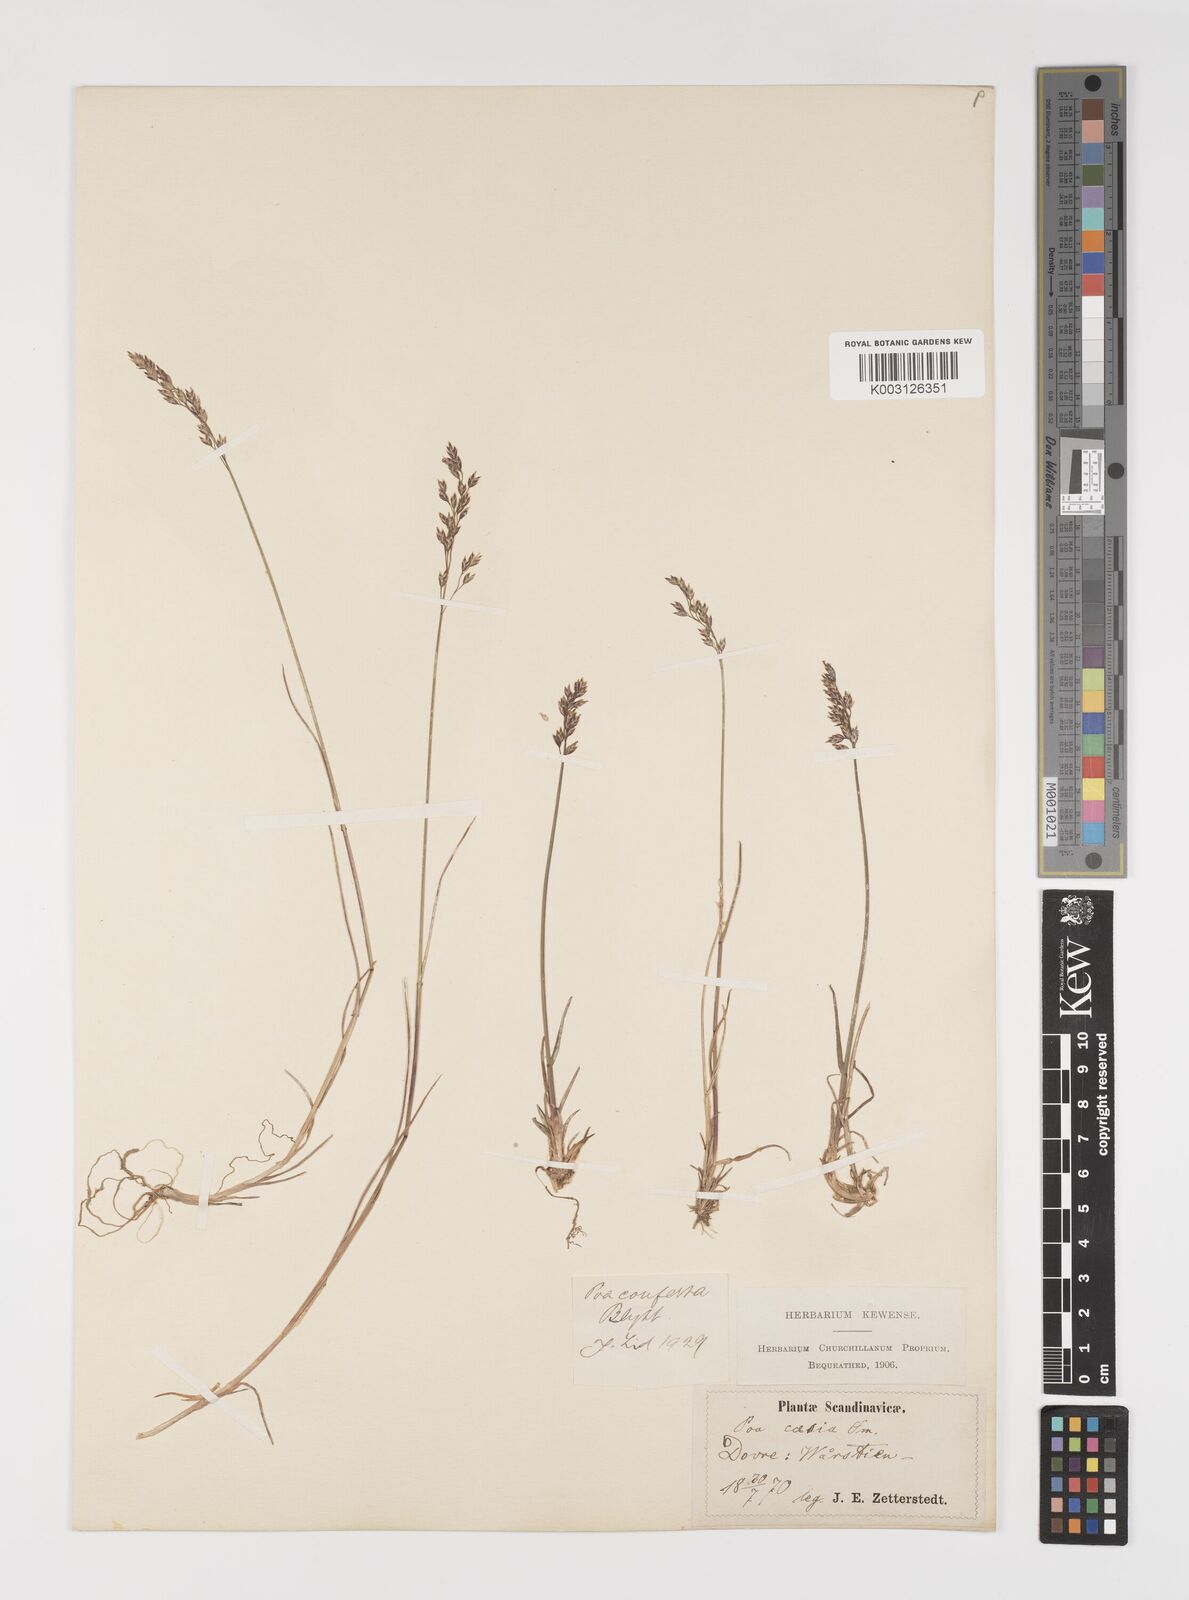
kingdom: Plantae
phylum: Tracheophyta
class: Liliopsida
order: Poales
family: Poaceae
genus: Poa
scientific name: Poa glauca
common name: Glaucous bluegrass
